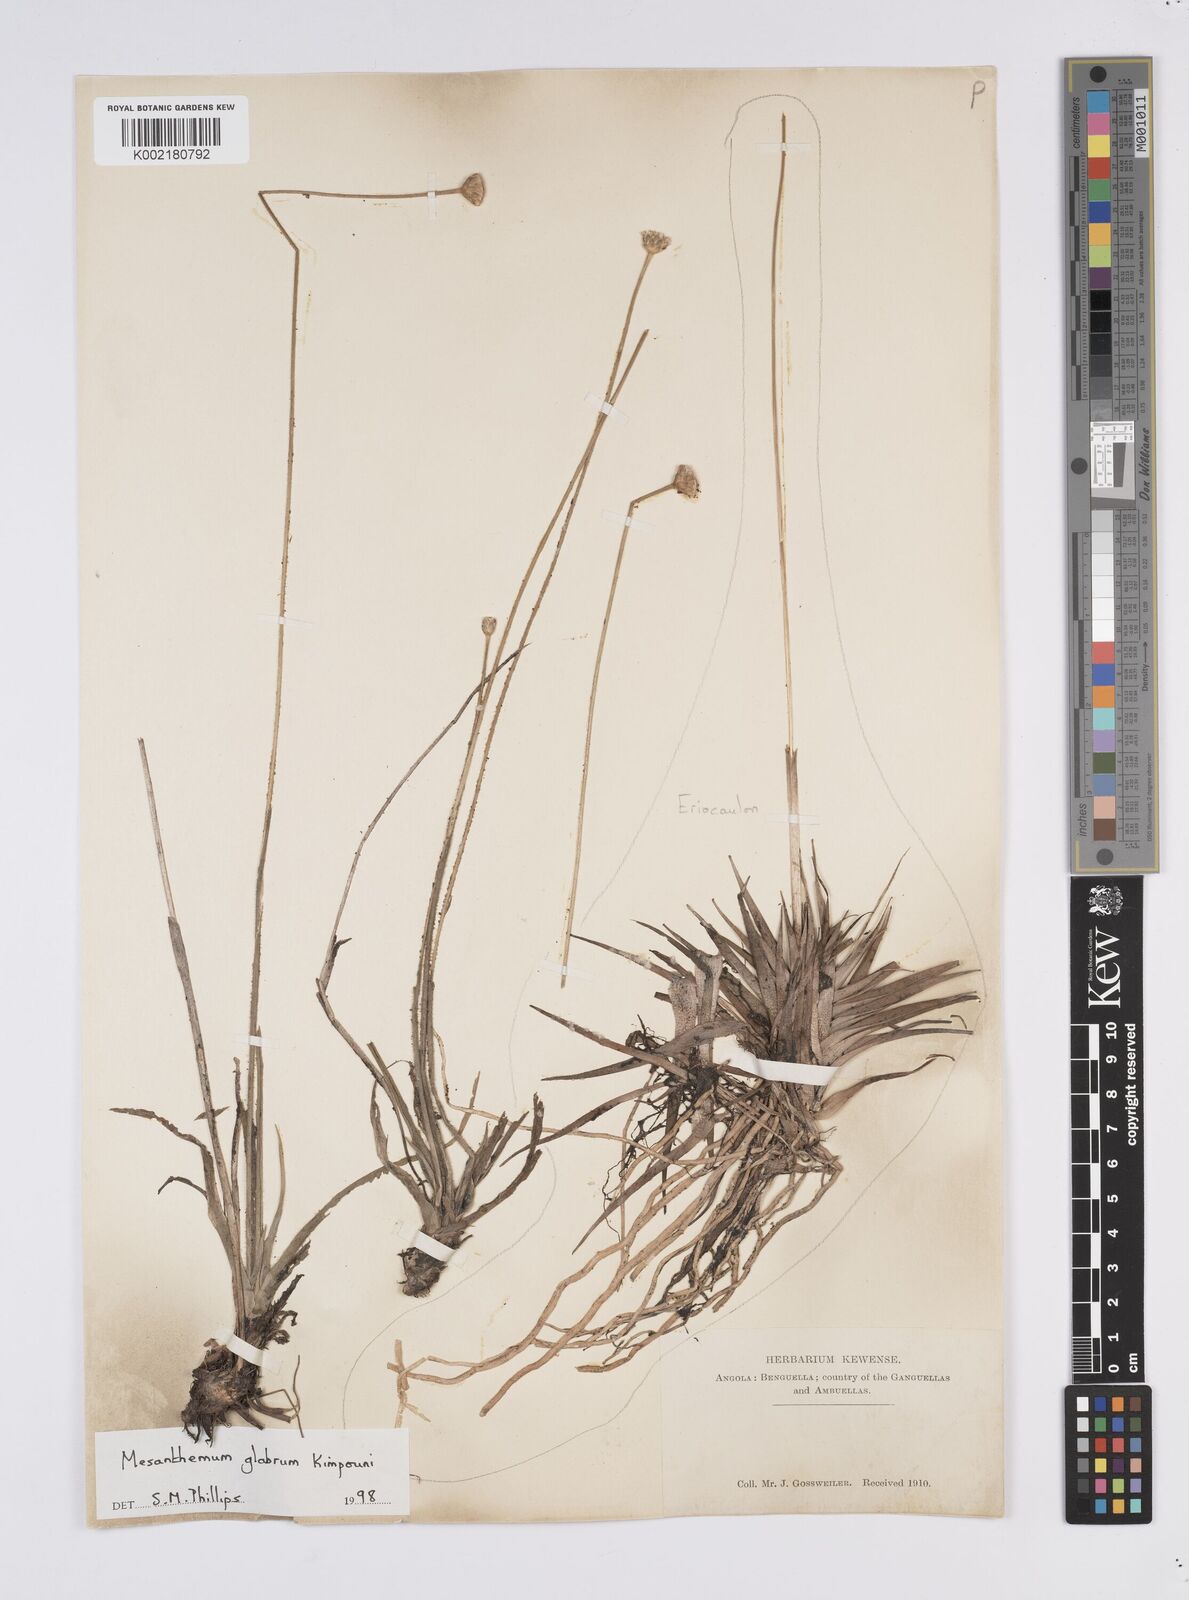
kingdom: Plantae
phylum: Tracheophyta
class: Liliopsida
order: Poales
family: Eriocaulaceae
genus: Mesanthemum
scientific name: Mesanthemum glabrum
